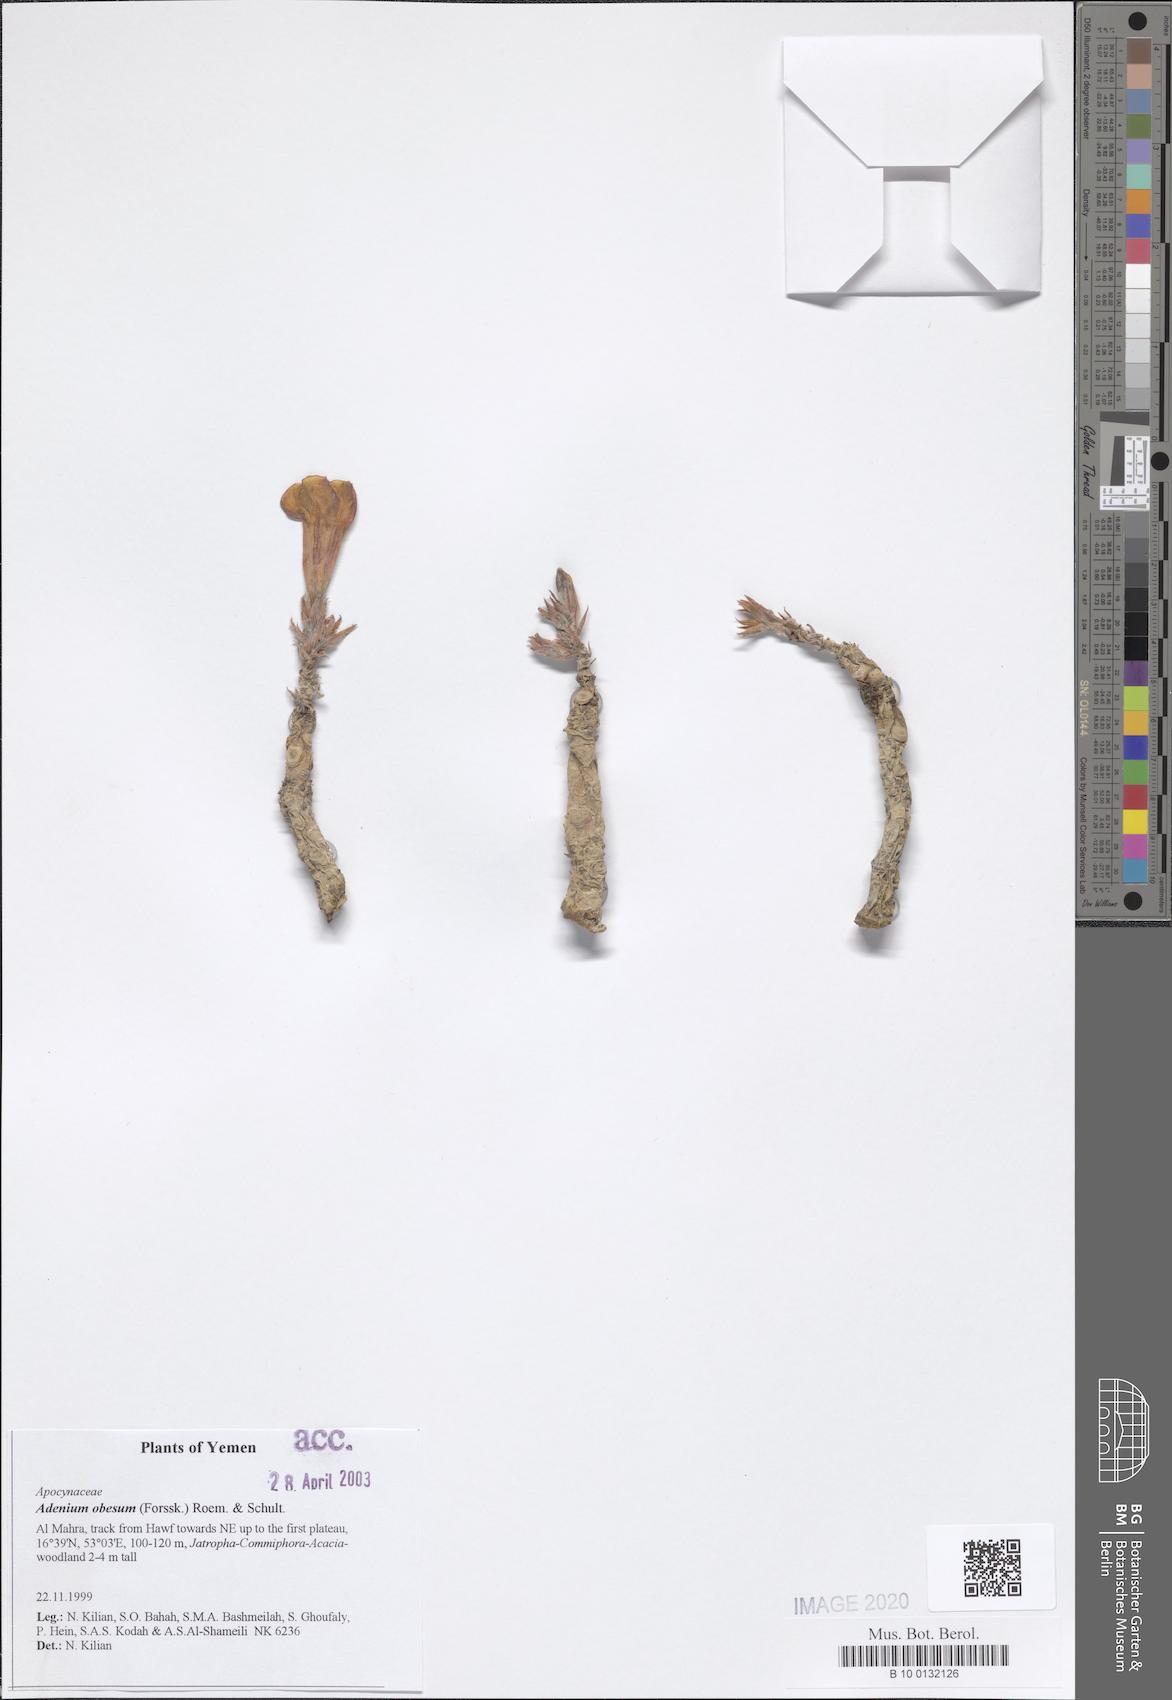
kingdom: Plantae
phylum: Tracheophyta
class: Magnoliopsida
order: Gentianales
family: Apocynaceae
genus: Adenium
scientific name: Adenium obesum
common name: Desert-rose
